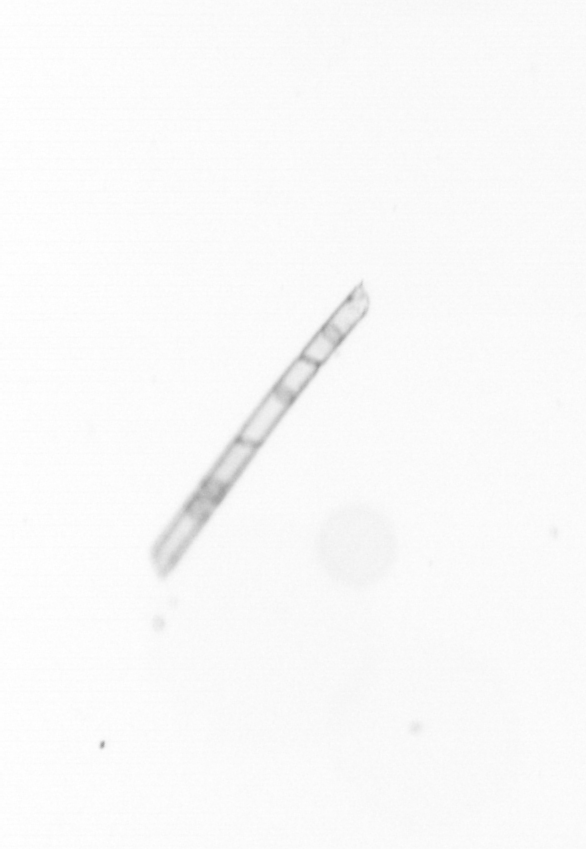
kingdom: Chromista
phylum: Ochrophyta
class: Bacillariophyceae
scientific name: Bacillariophyceae
